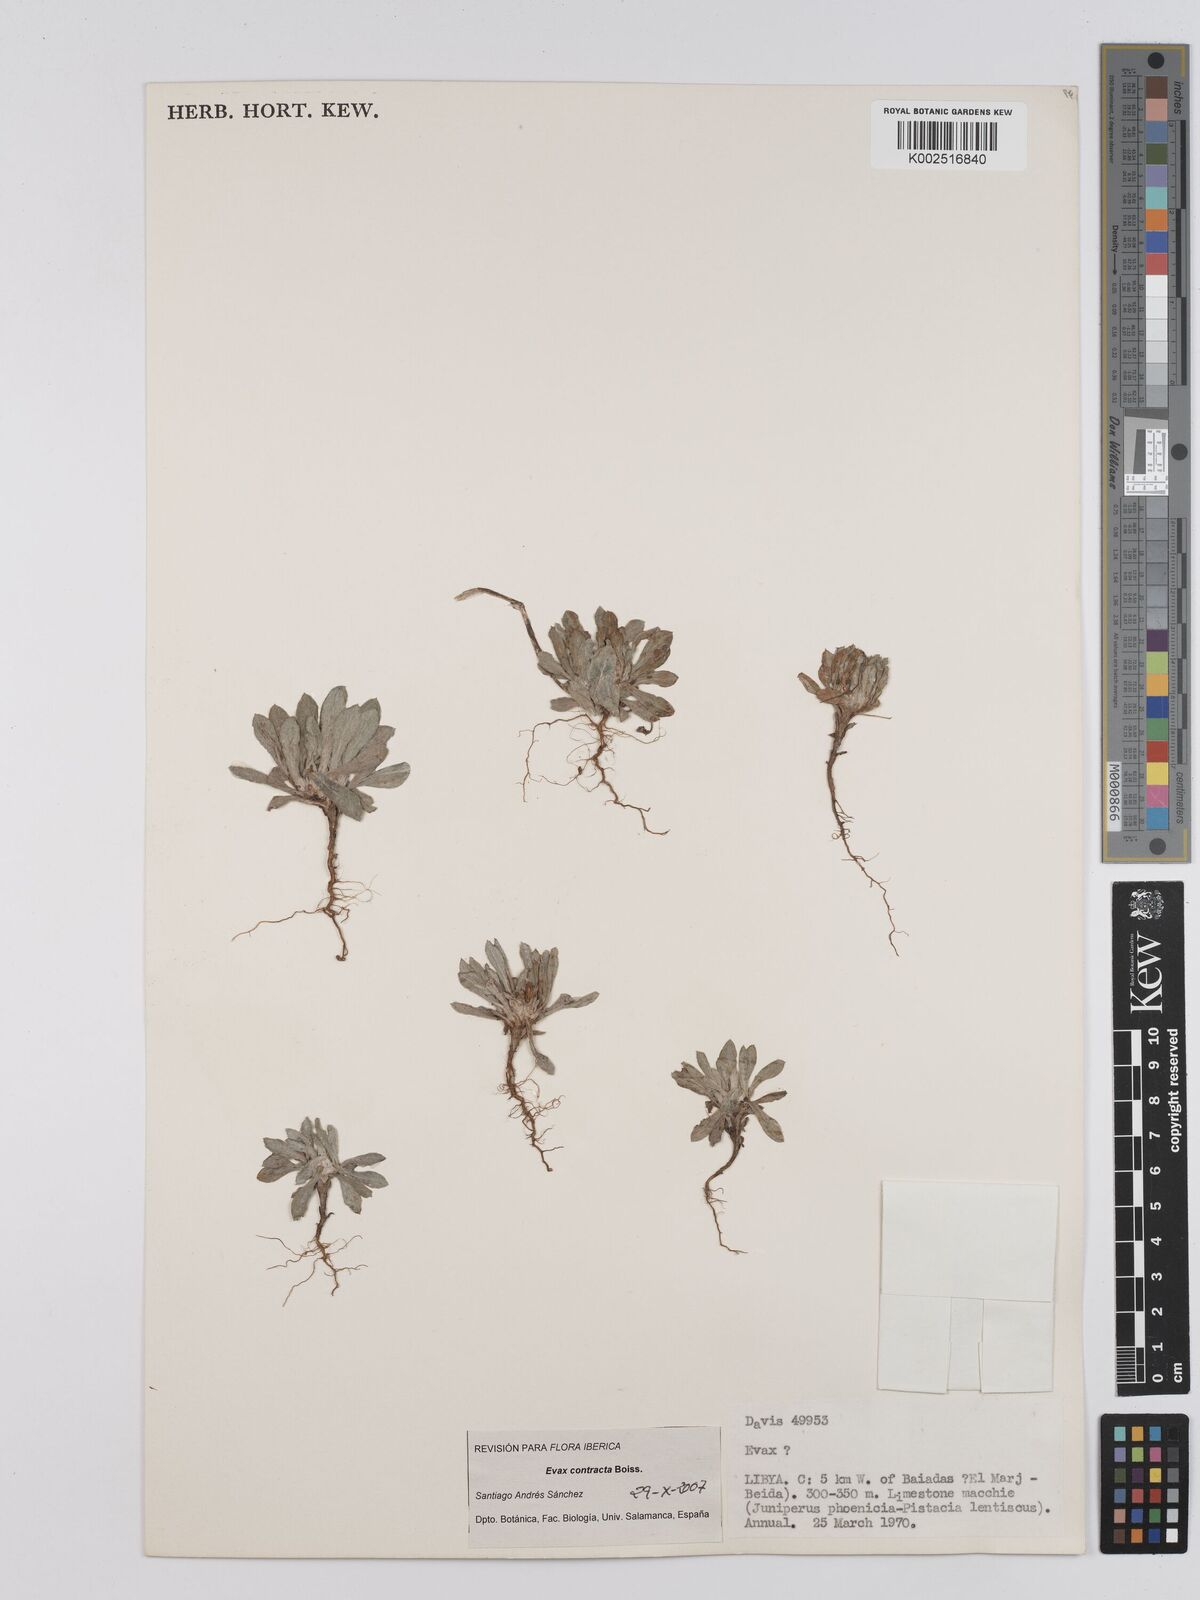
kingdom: Plantae
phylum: Tracheophyta
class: Magnoliopsida
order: Asterales
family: Asteraceae
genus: Filago
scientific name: Filago
